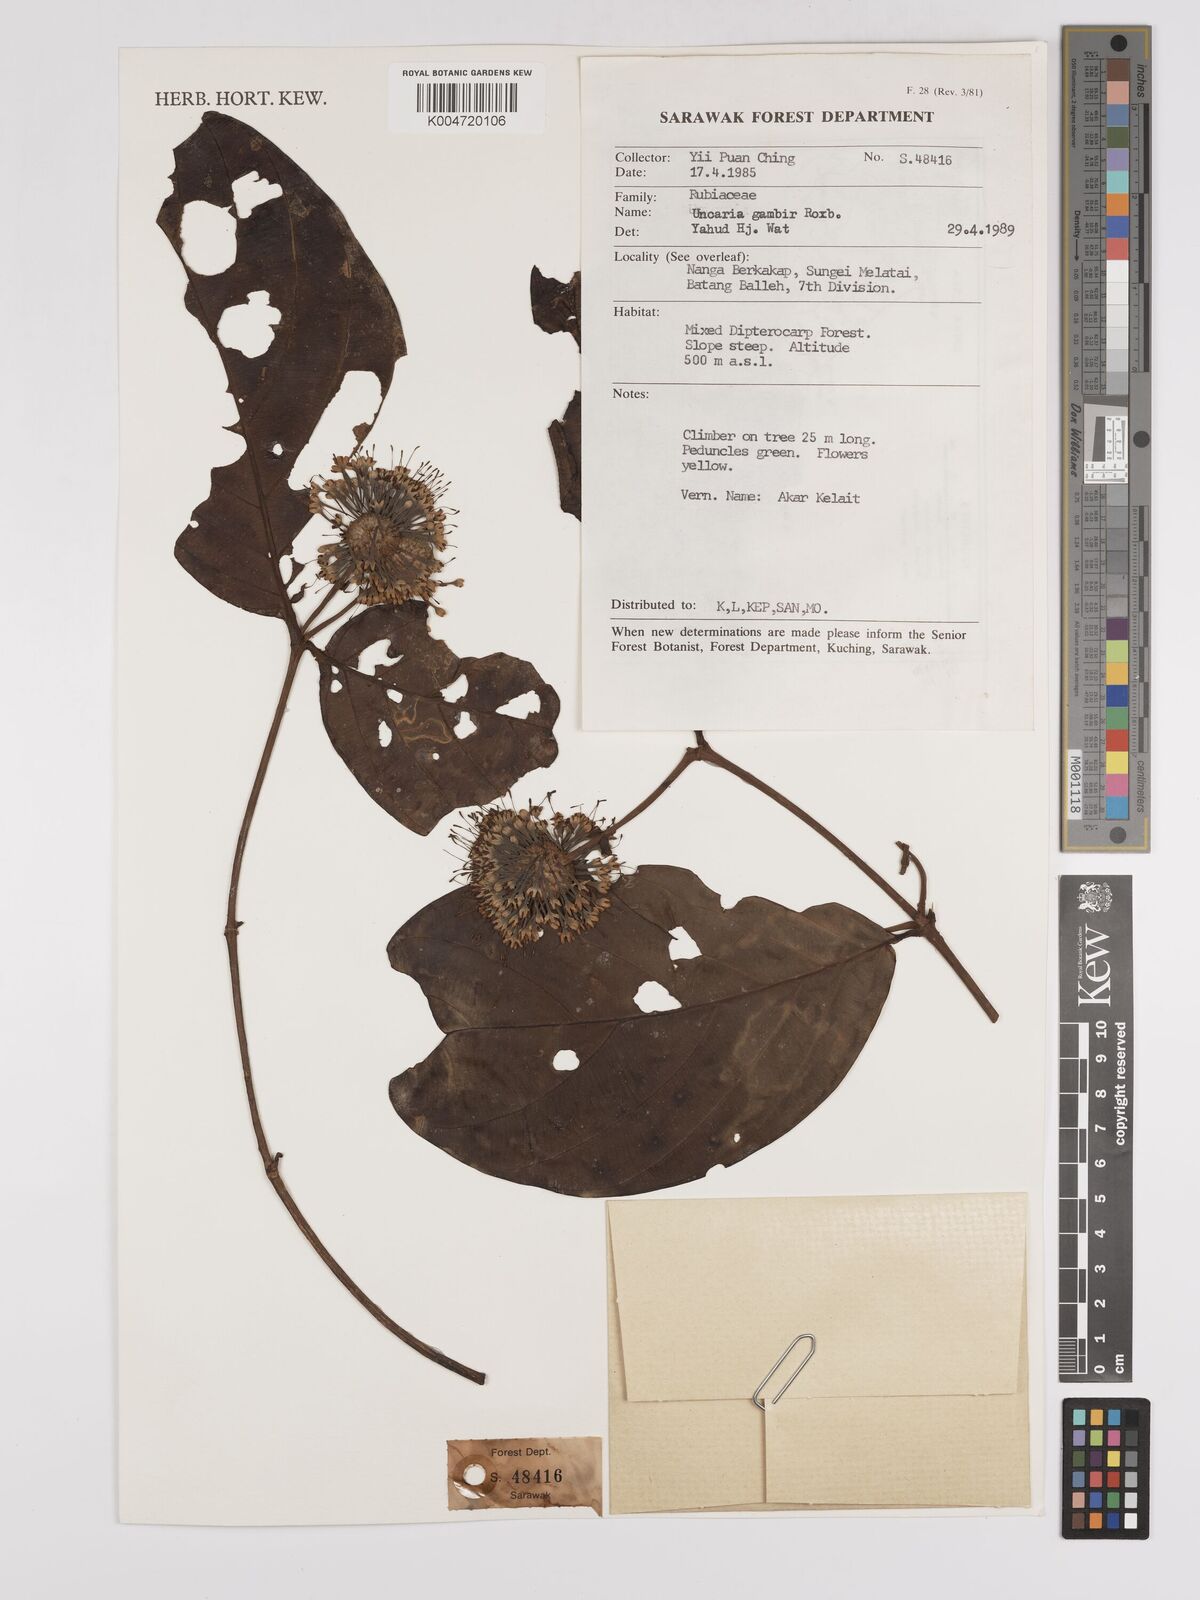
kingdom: Plantae
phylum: Tracheophyta
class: Magnoliopsida
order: Gentianales
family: Rubiaceae
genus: Uncaria
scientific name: Uncaria
